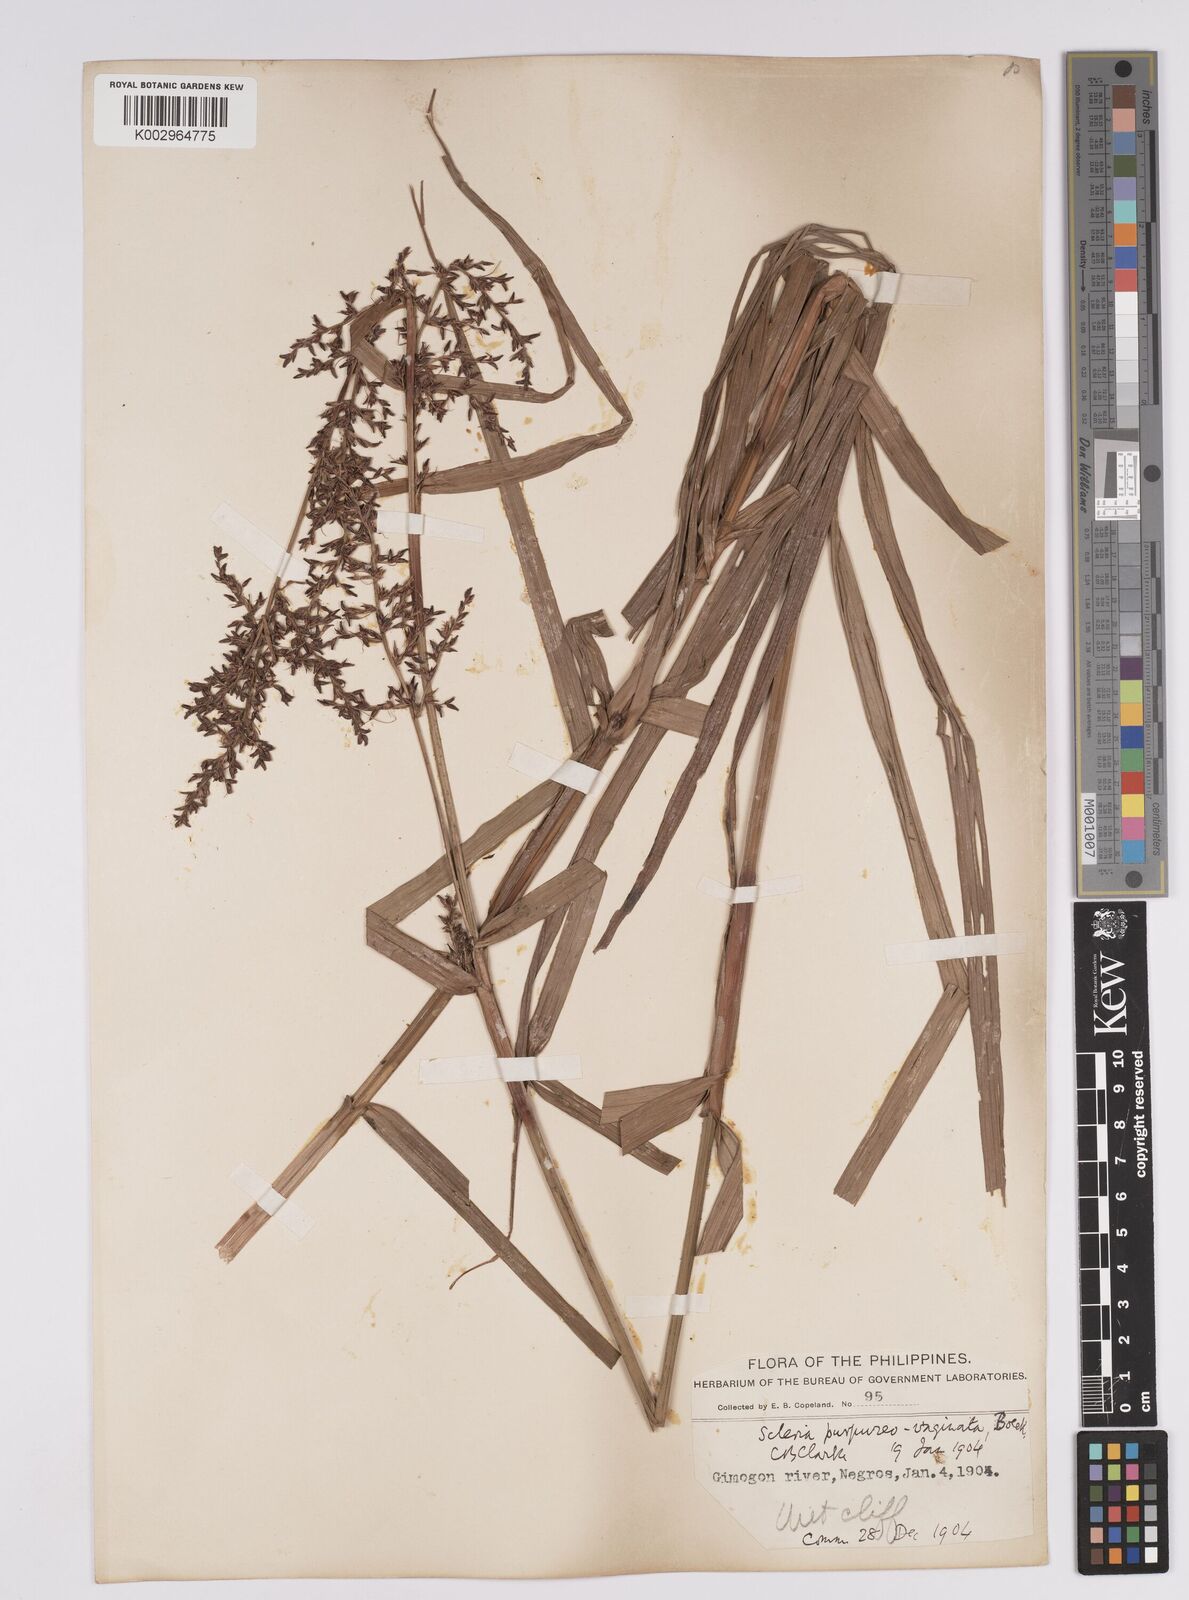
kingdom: Plantae
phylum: Tracheophyta
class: Liliopsida
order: Poales
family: Cyperaceae
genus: Scleria
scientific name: Scleria scrobiculata
